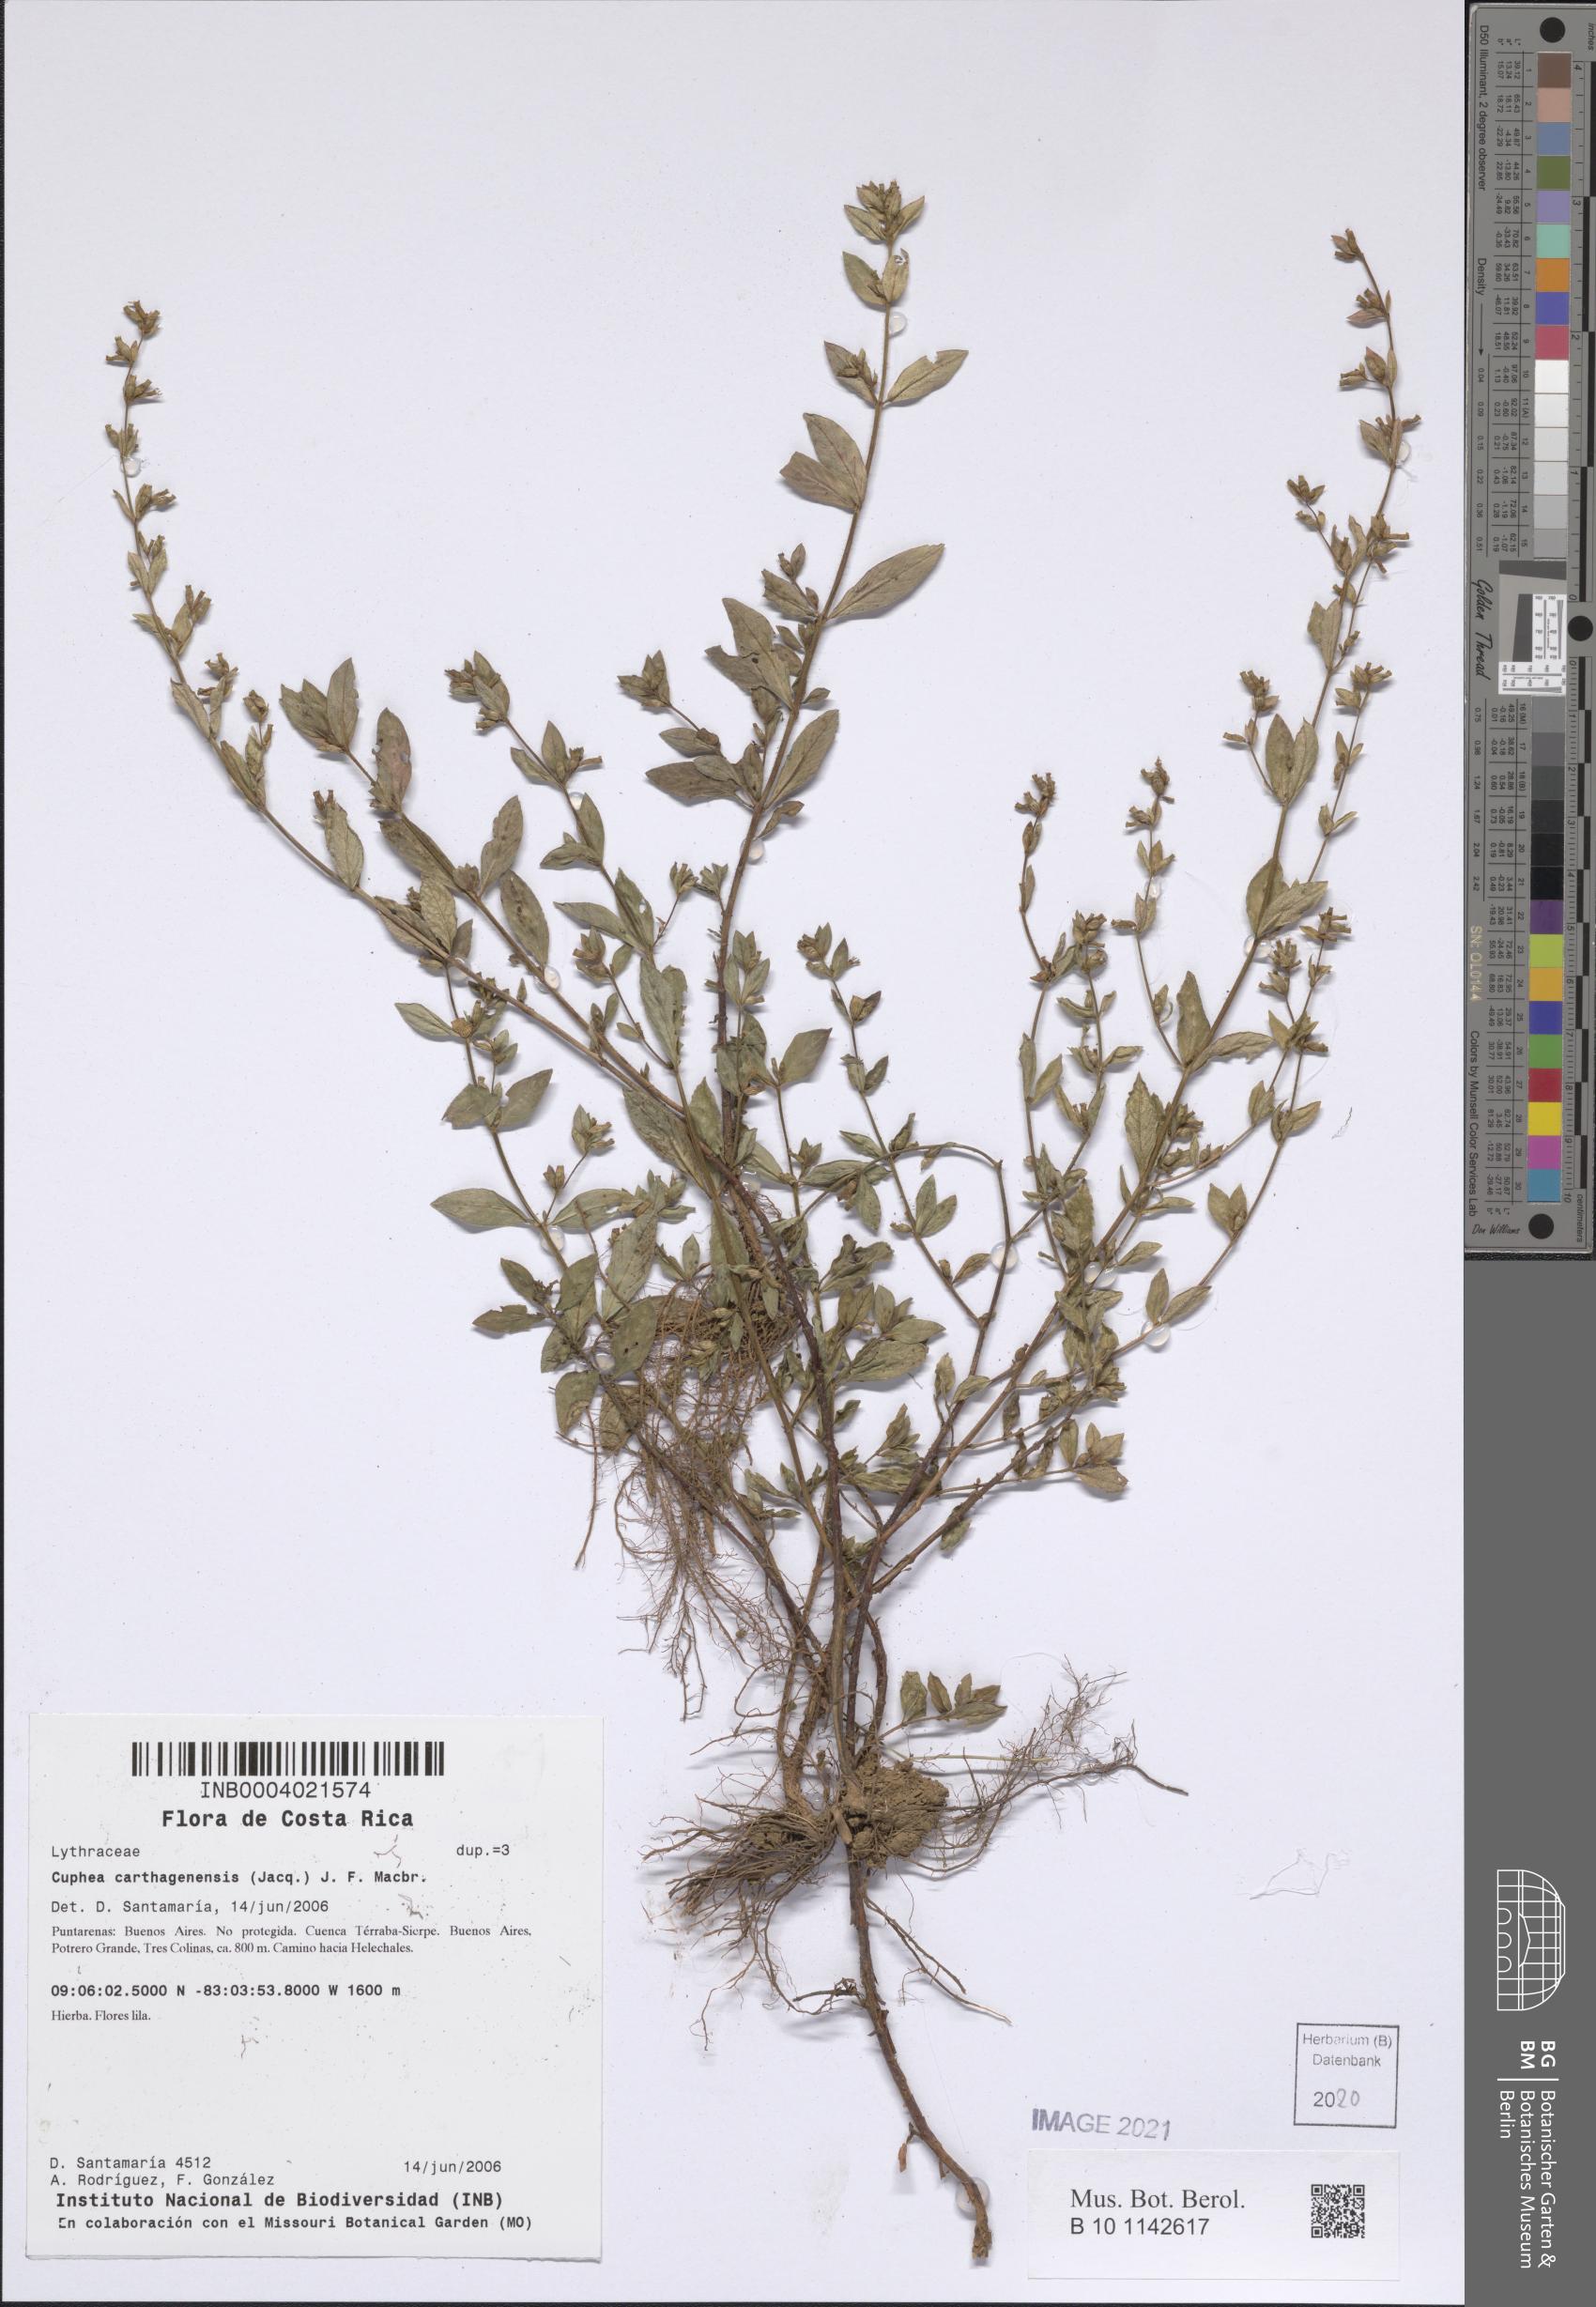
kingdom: Plantae
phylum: Tracheophyta
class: Magnoliopsida
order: Myrtales
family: Lythraceae
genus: Cuphea
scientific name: Cuphea carthagenensis
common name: Colombian waxweed
